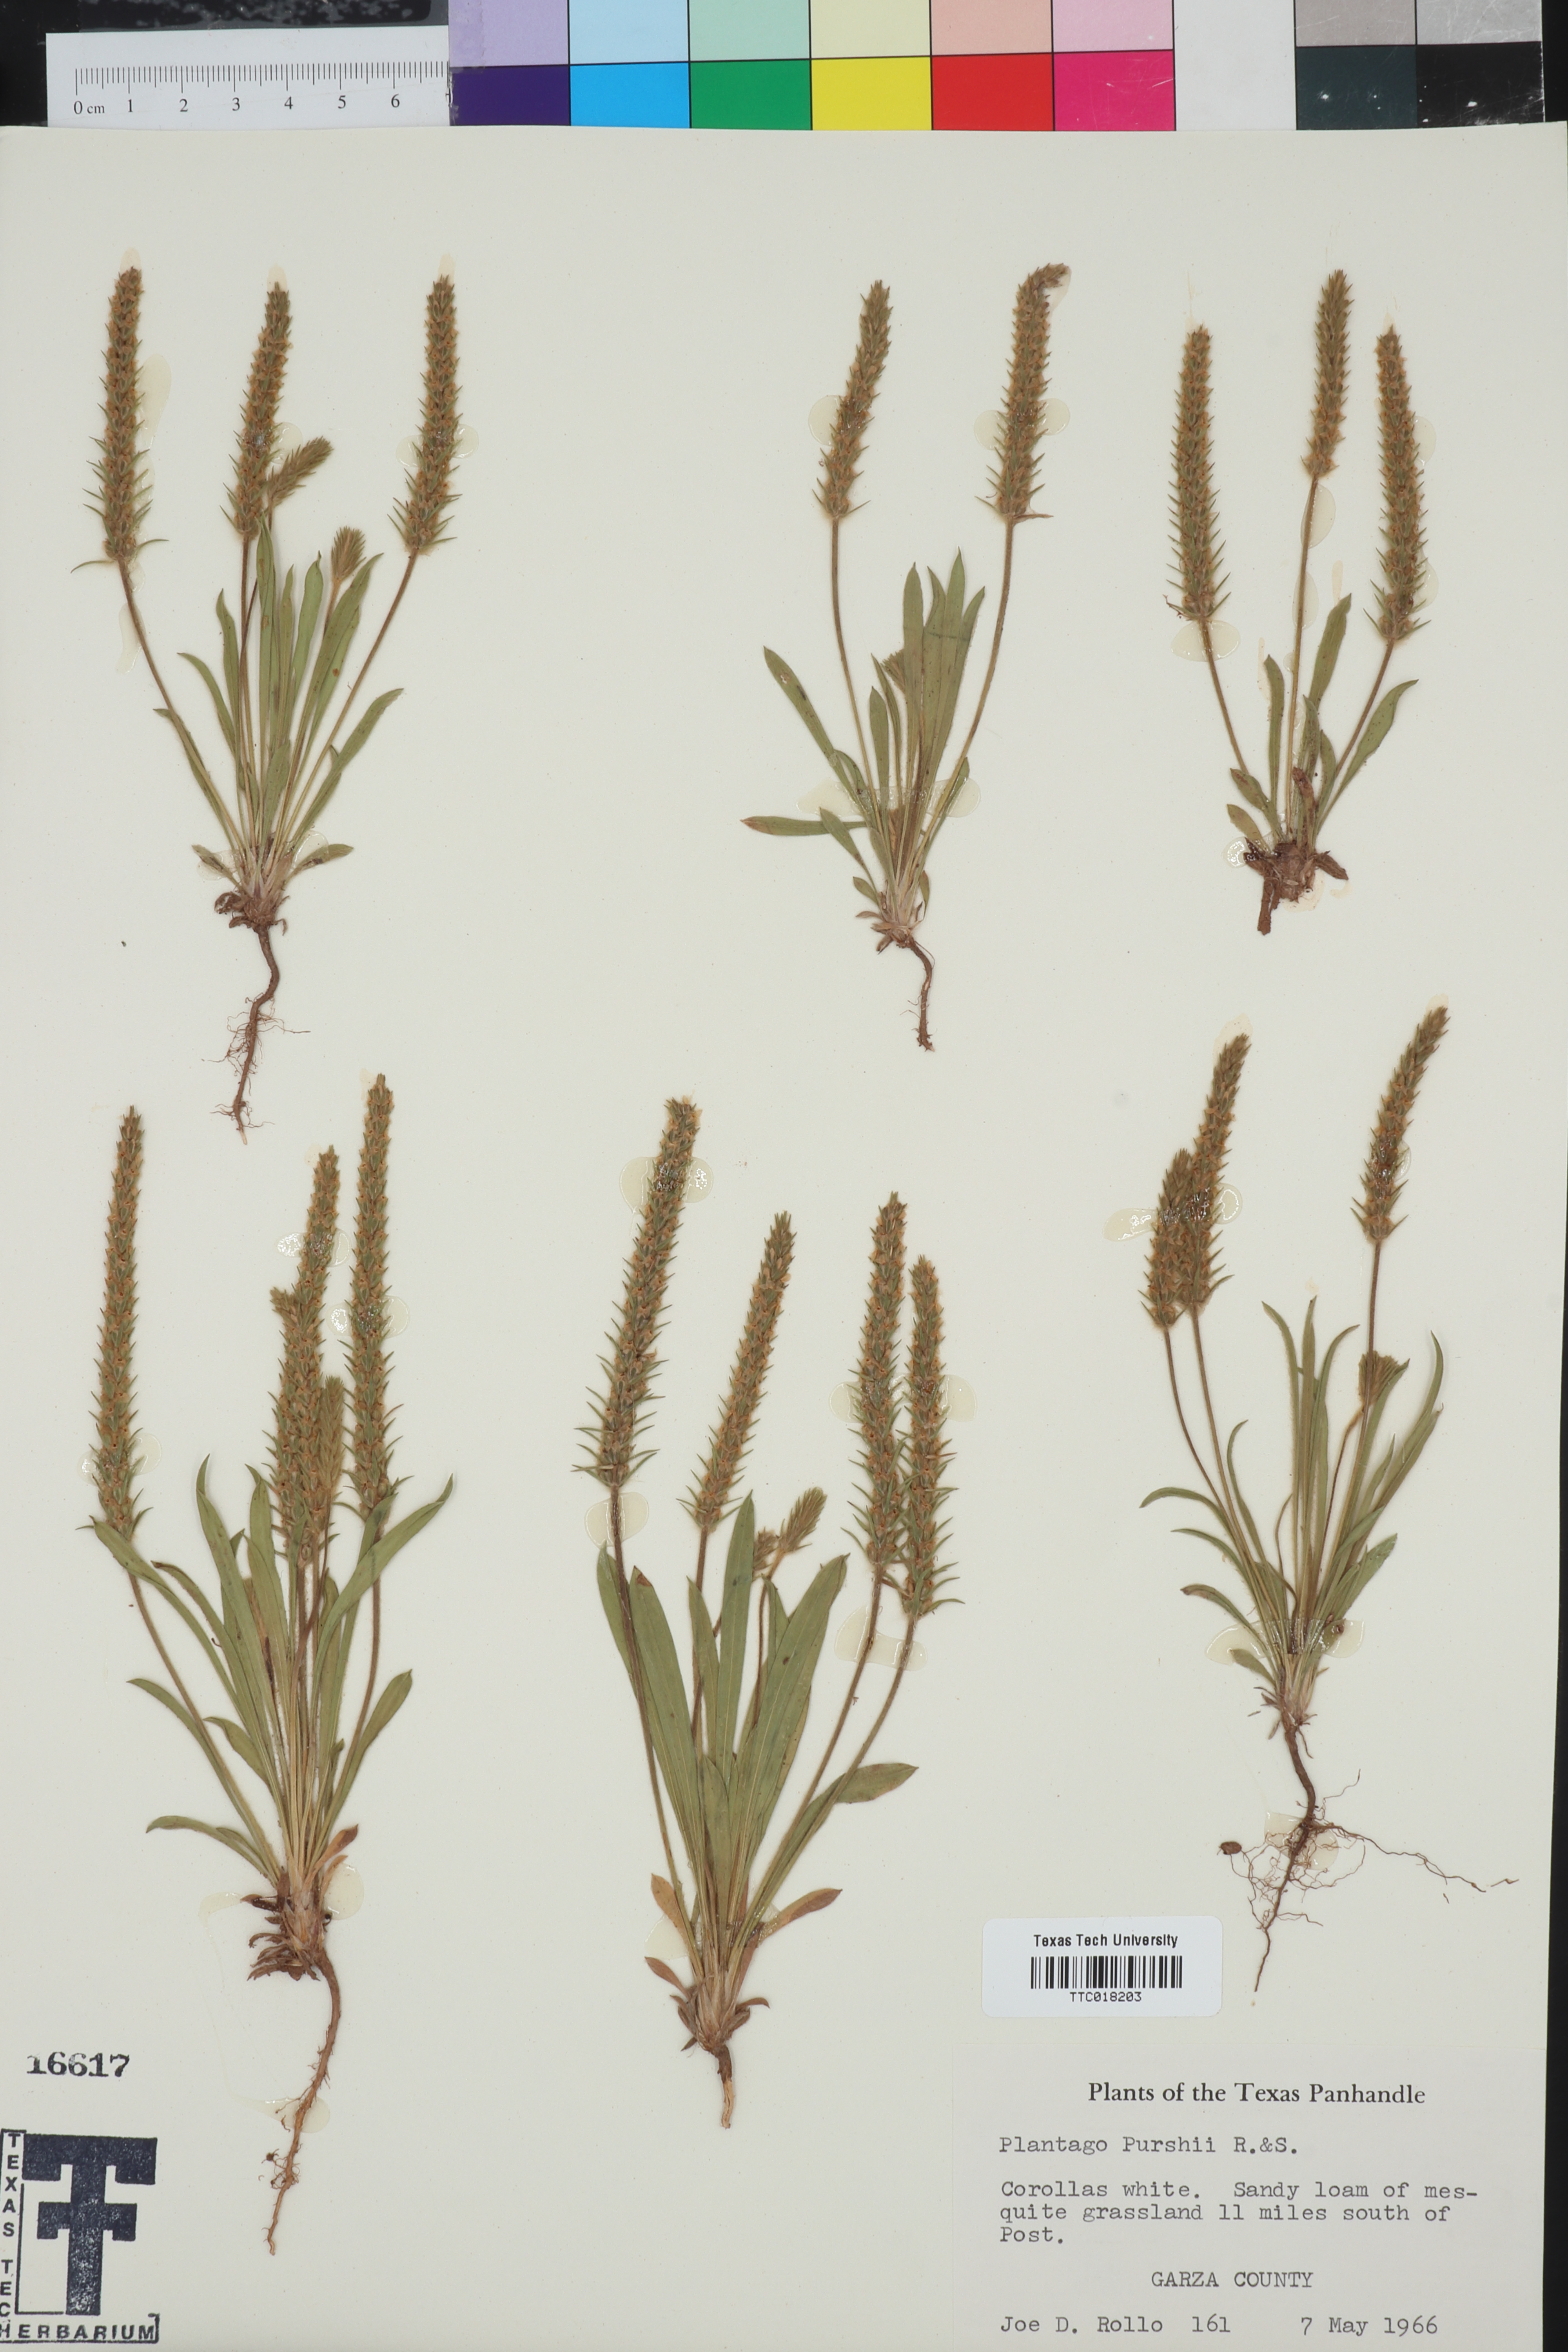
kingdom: Plantae
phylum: Tracheophyta
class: Magnoliopsida
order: Lamiales
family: Plantaginaceae
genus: Plantago
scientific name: Plantago patagonica
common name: Patagonia indian-wheat
